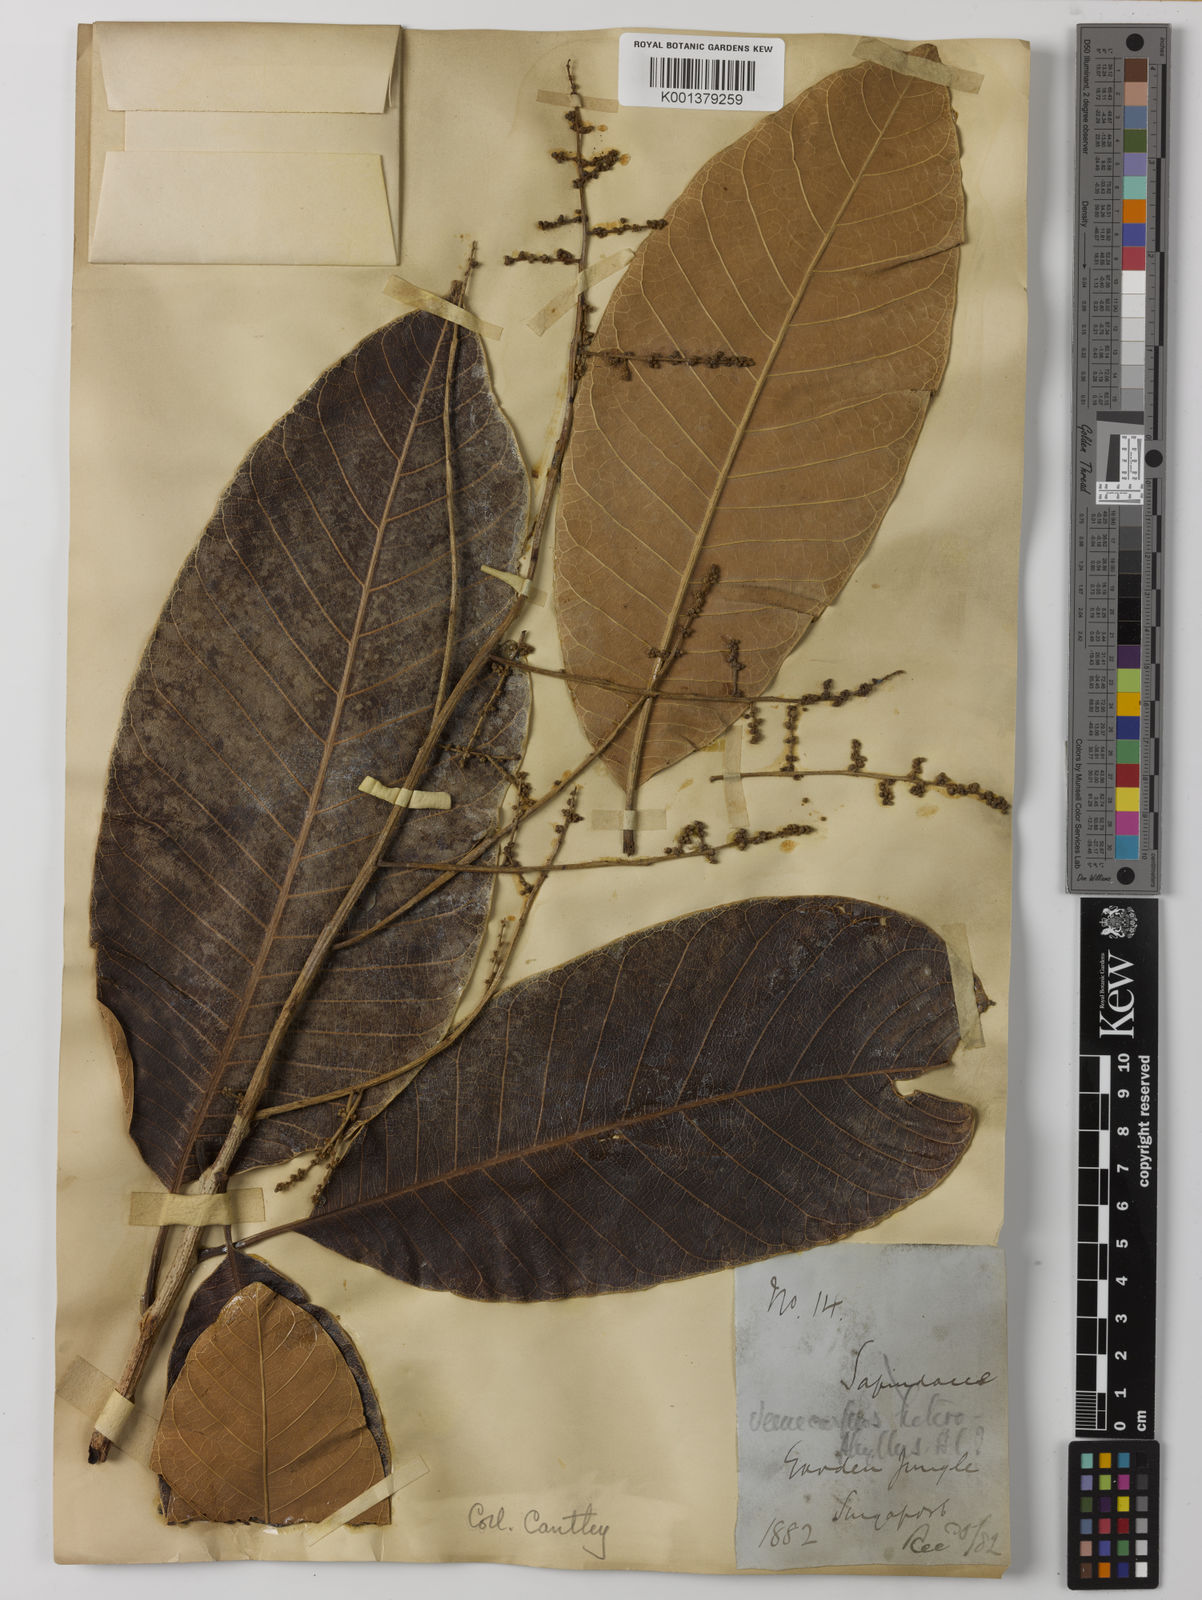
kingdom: Plantae
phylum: Tracheophyta
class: Magnoliopsida
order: Sapindales
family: Anacardiaceae
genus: Semecarpus
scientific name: Semecarpus heterophyllus
